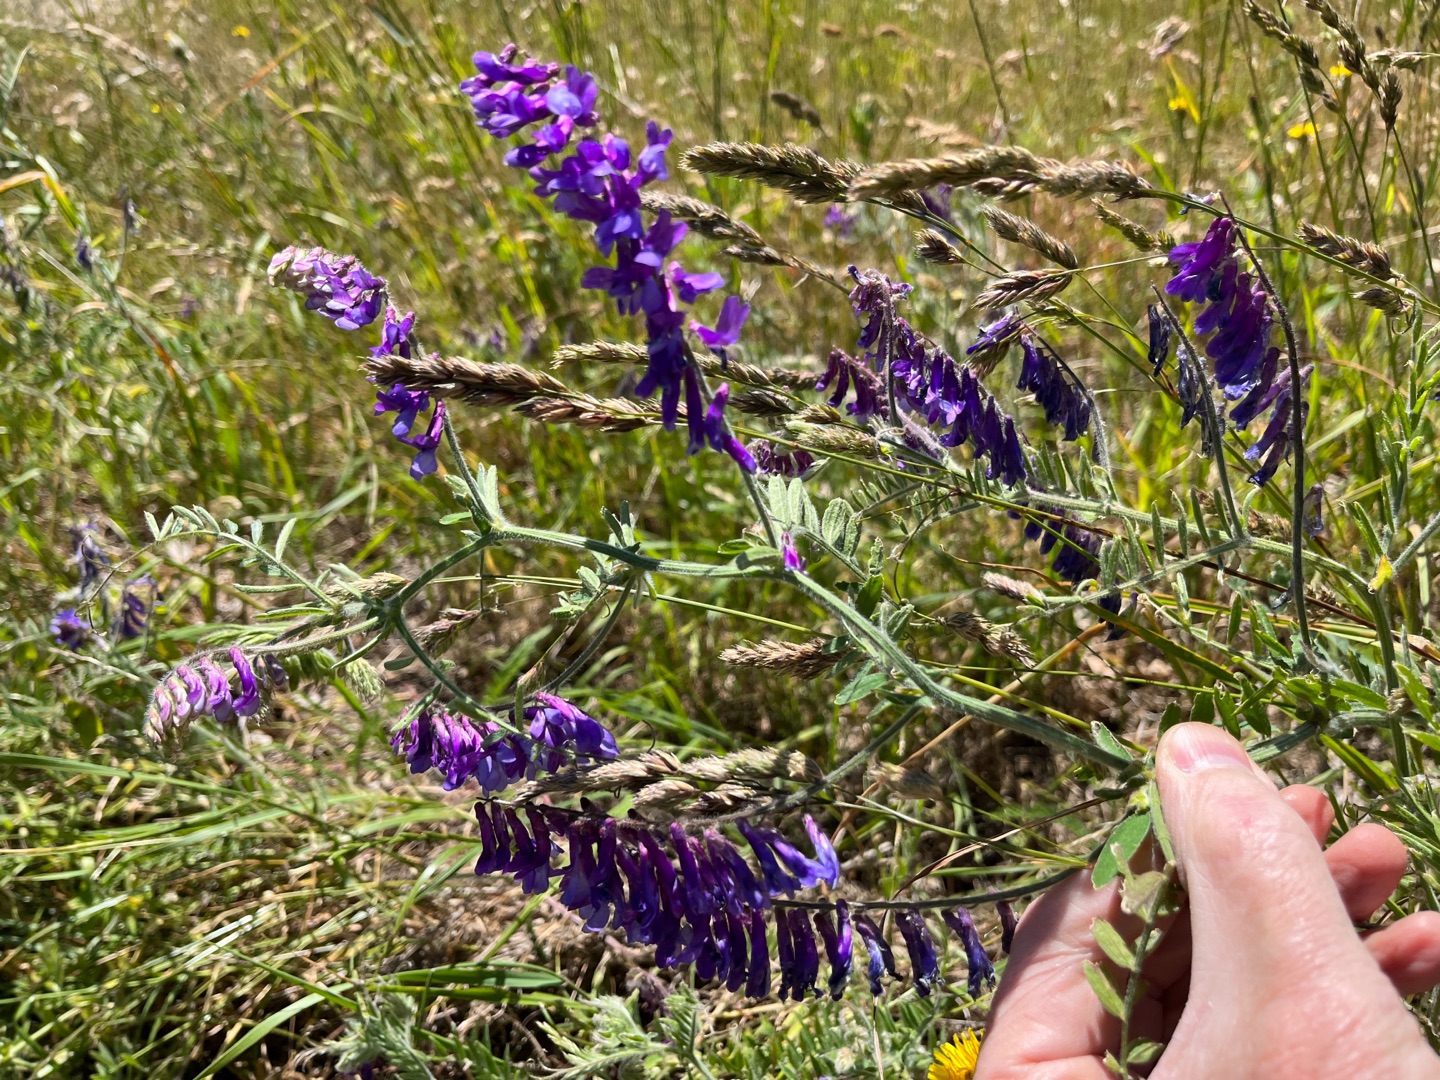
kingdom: Plantae
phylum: Tracheophyta
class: Magnoliopsida
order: Fabales
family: Fabaceae
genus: Vicia
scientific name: Vicia villosa
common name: Sand-vikke (underart)
